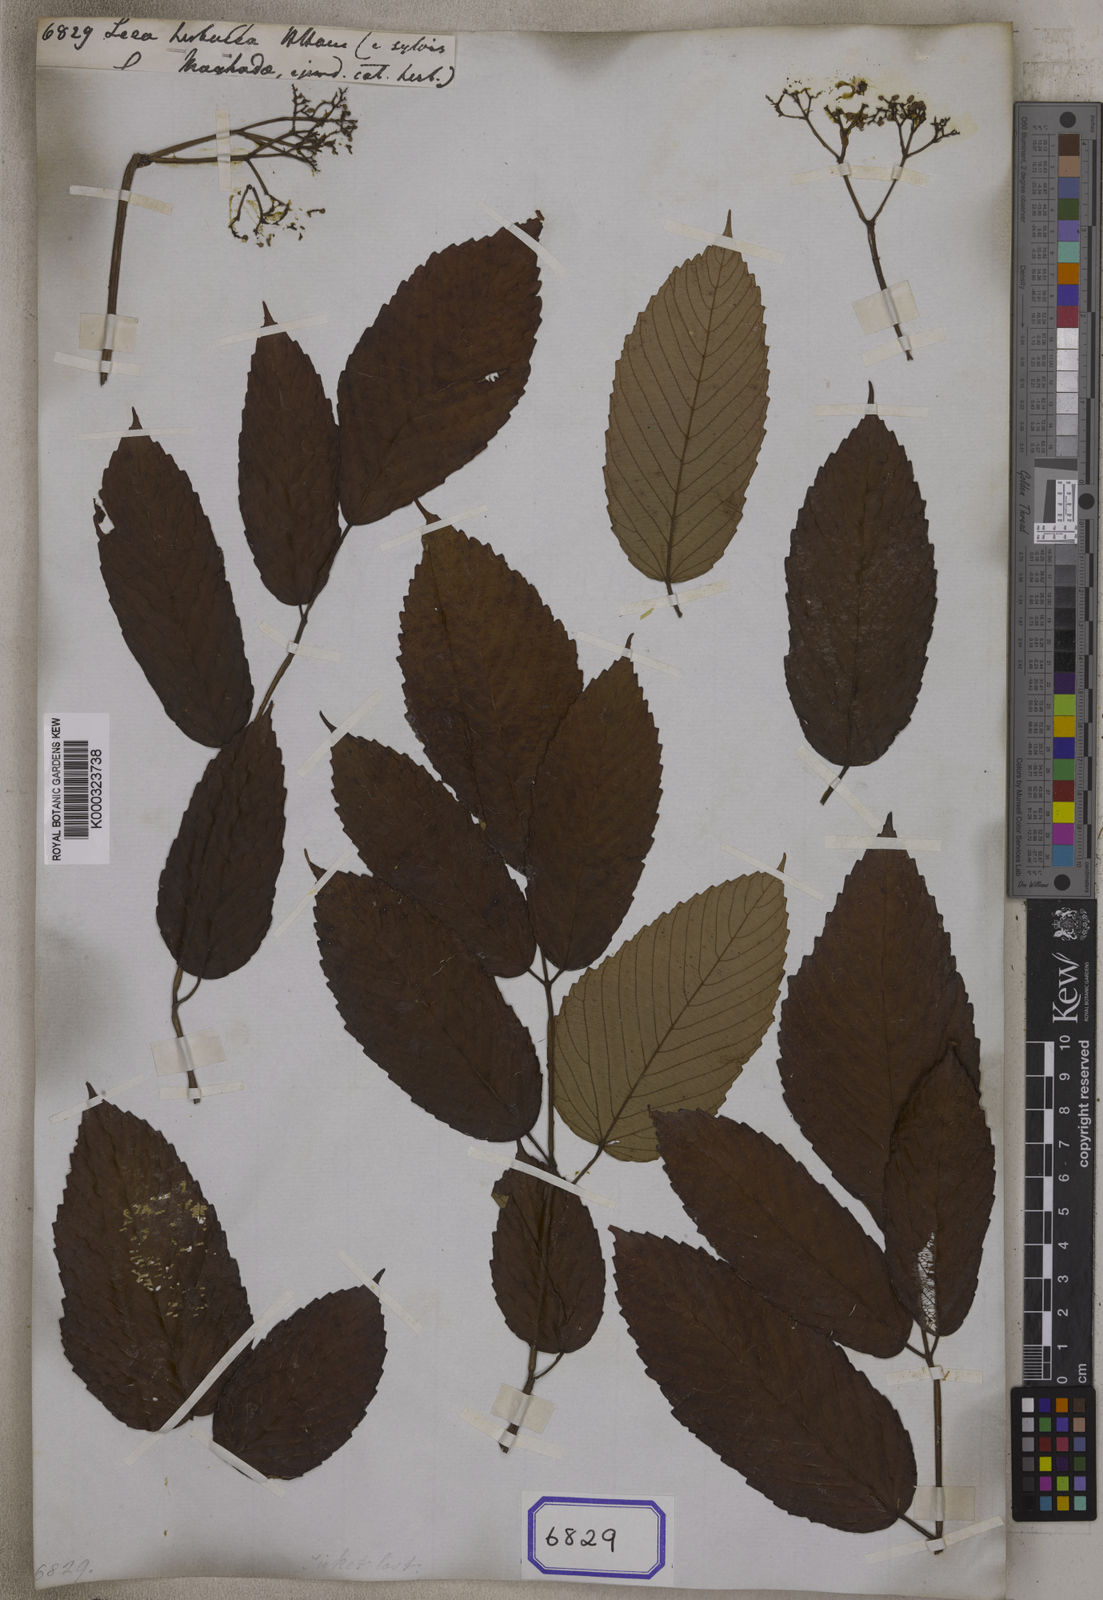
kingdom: Plantae
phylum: Tracheophyta
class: Magnoliopsida
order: Vitales
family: Vitaceae
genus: Leea
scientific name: Leea asiatica
